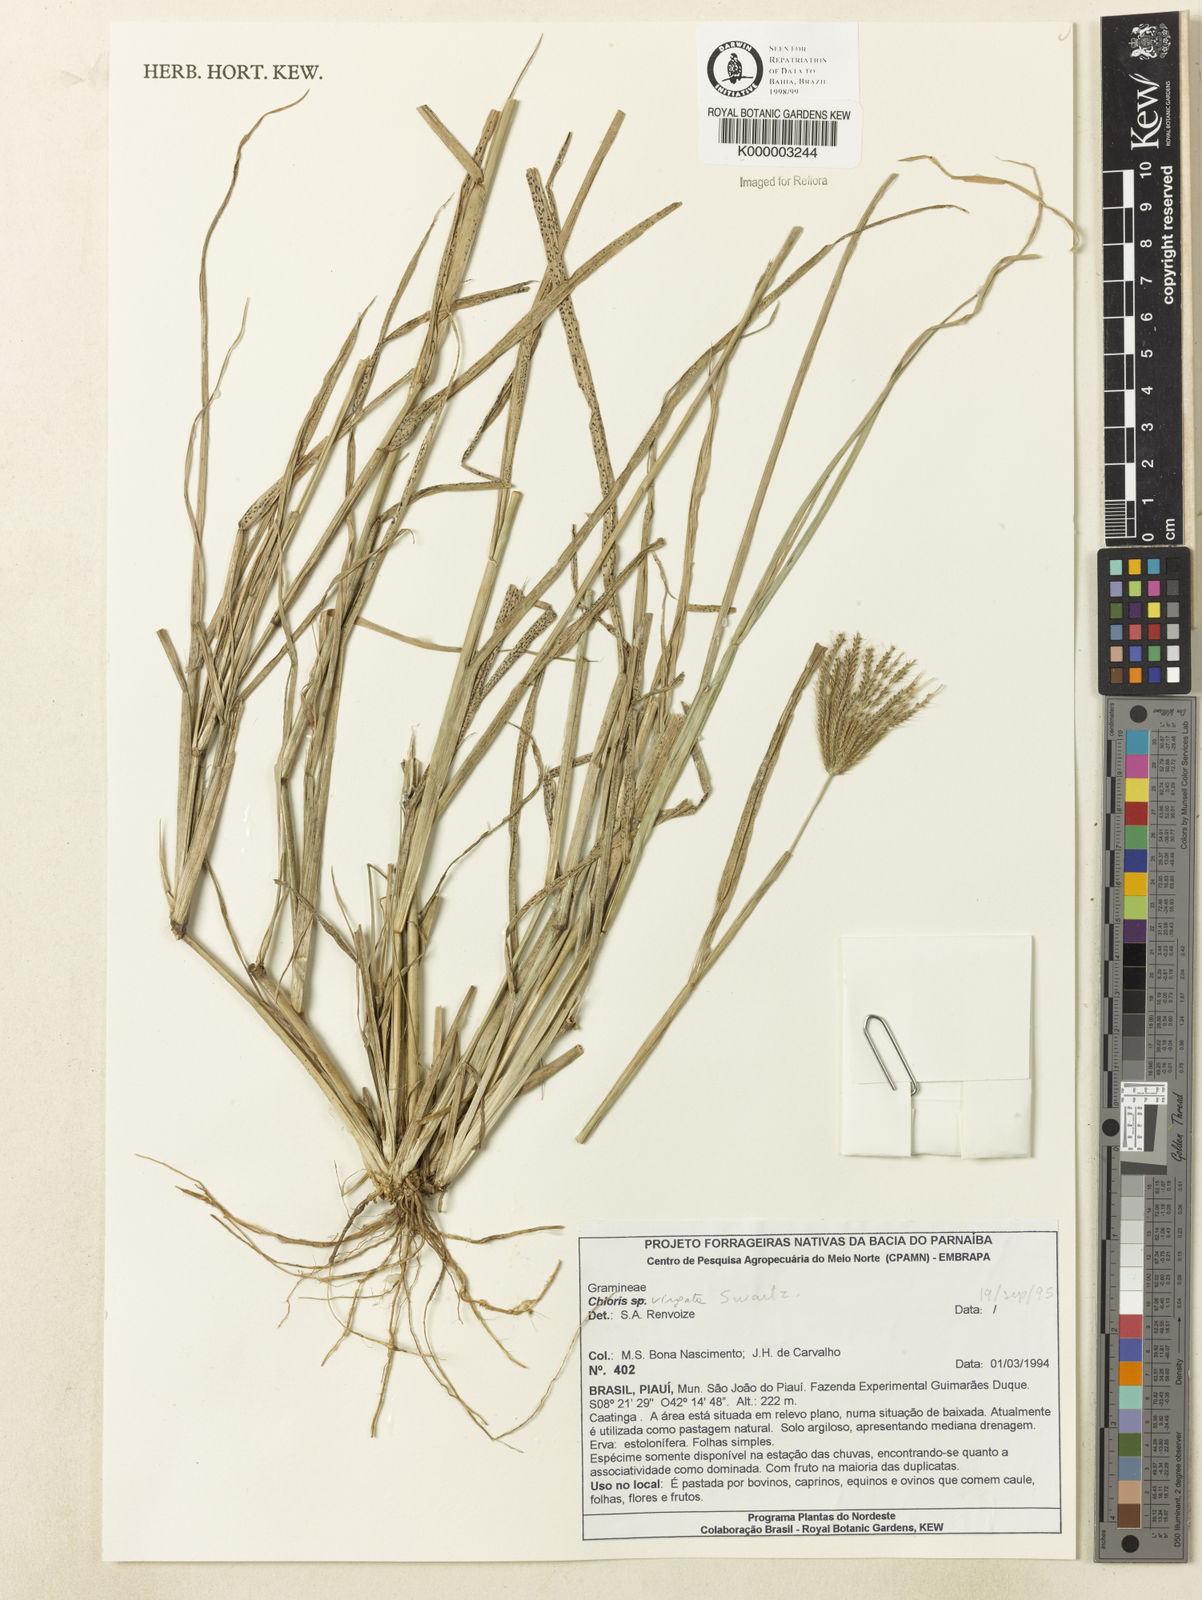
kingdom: Plantae
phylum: Tracheophyta
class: Liliopsida
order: Poales
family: Poaceae
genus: Chloris
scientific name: Chloris
